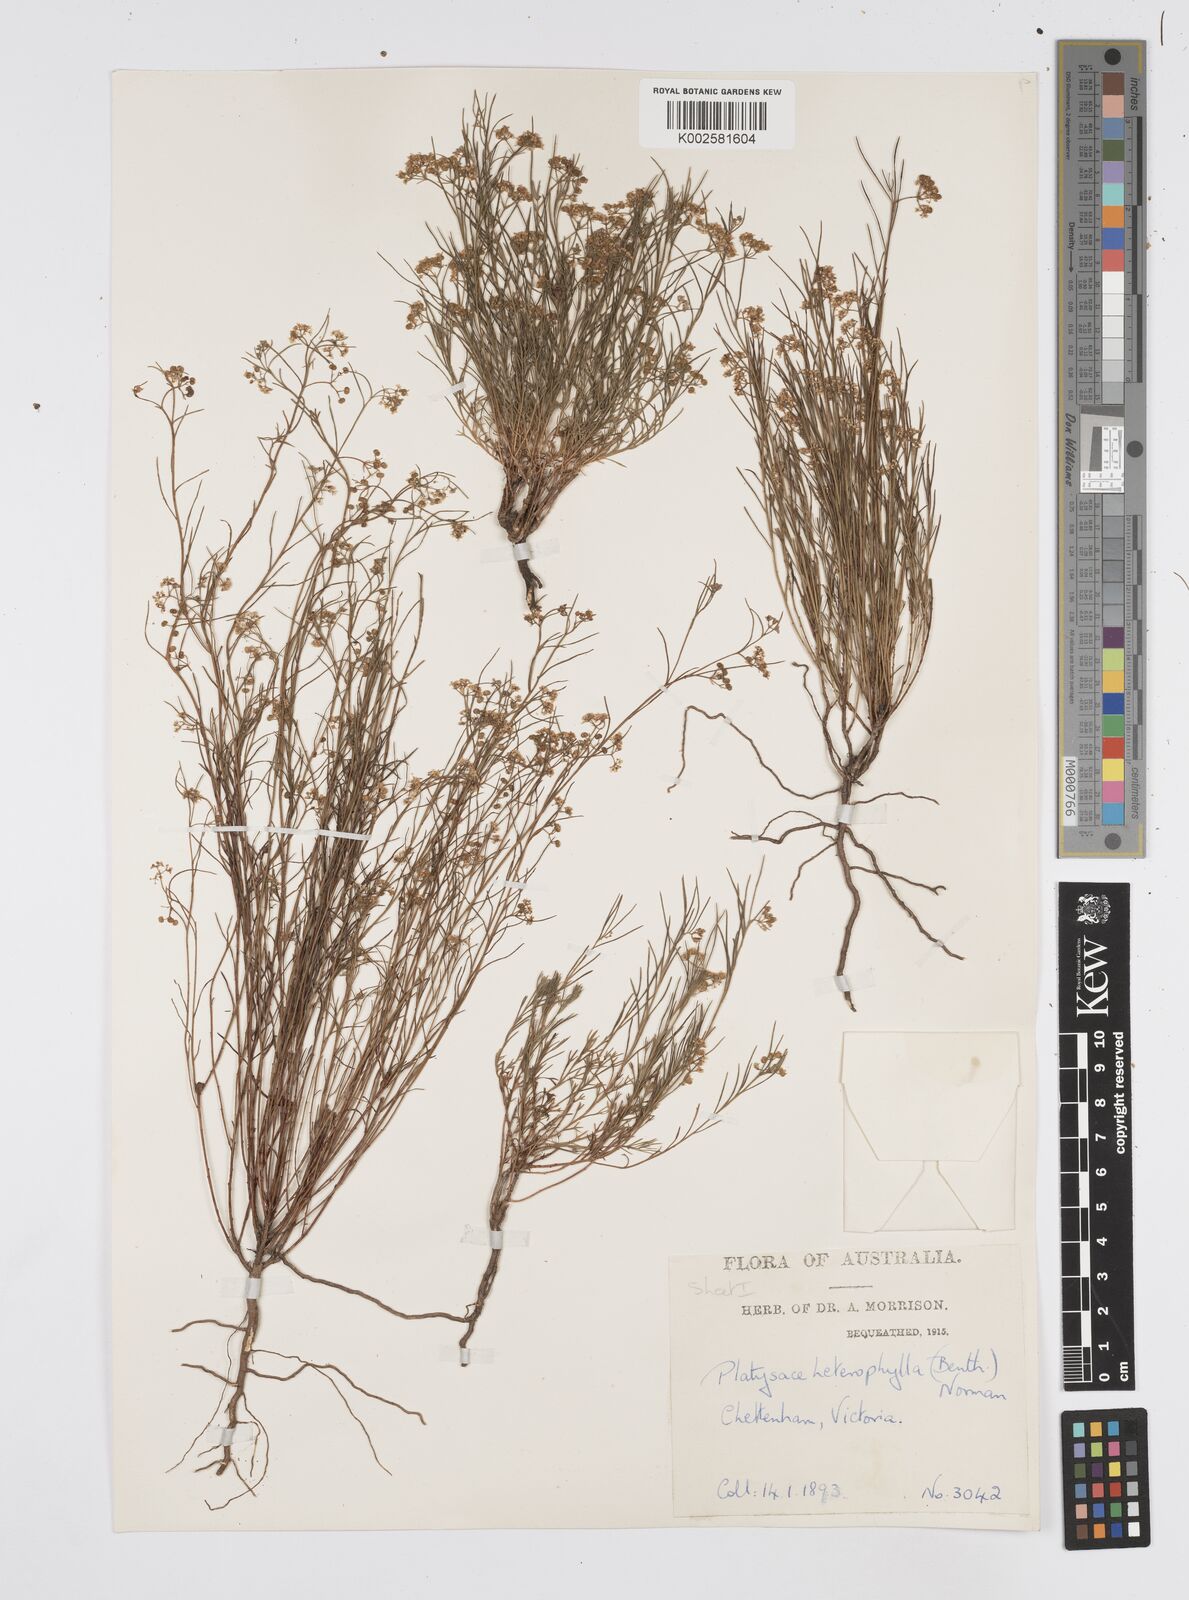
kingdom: Plantae
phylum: Tracheophyta
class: Magnoliopsida
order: Apiales
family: Apiaceae
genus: Platysace
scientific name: Platysace heterophylla
